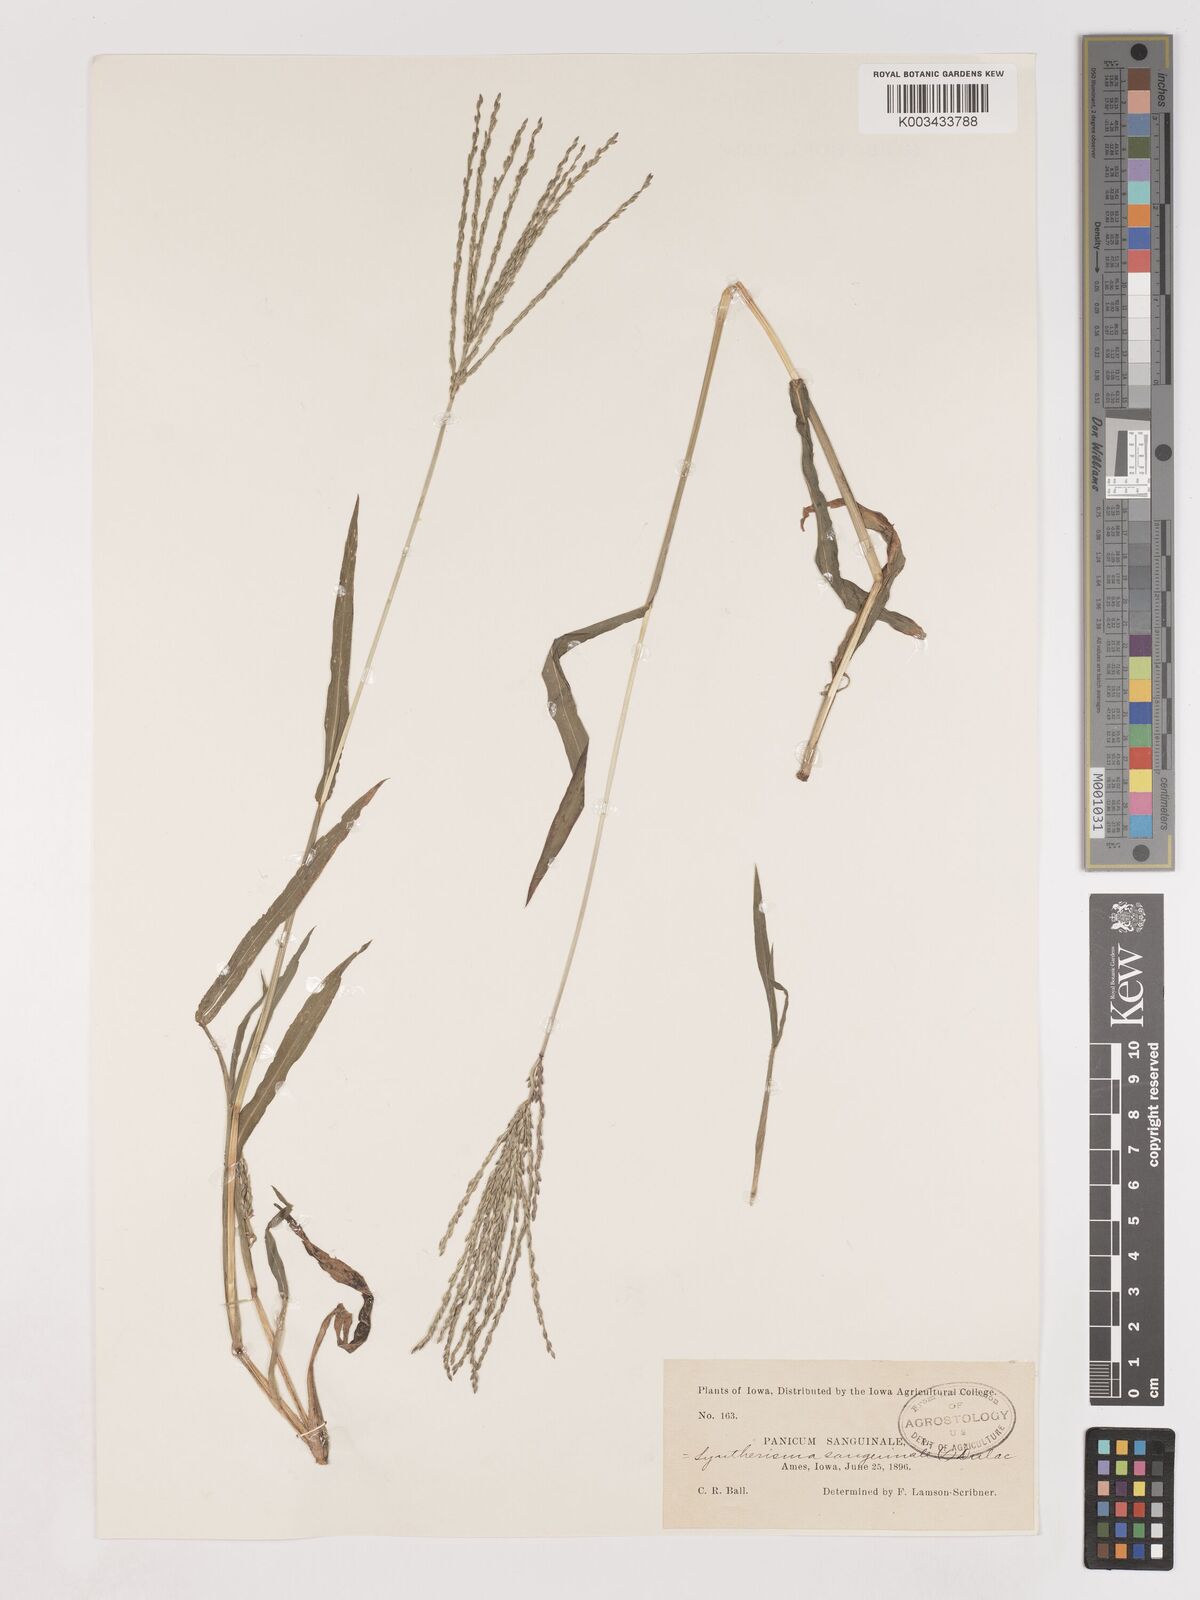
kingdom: Plantae
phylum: Tracheophyta
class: Liliopsida
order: Poales
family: Poaceae
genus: Digitaria
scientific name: Digitaria sanguinalis
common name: Hairy crabgrass
